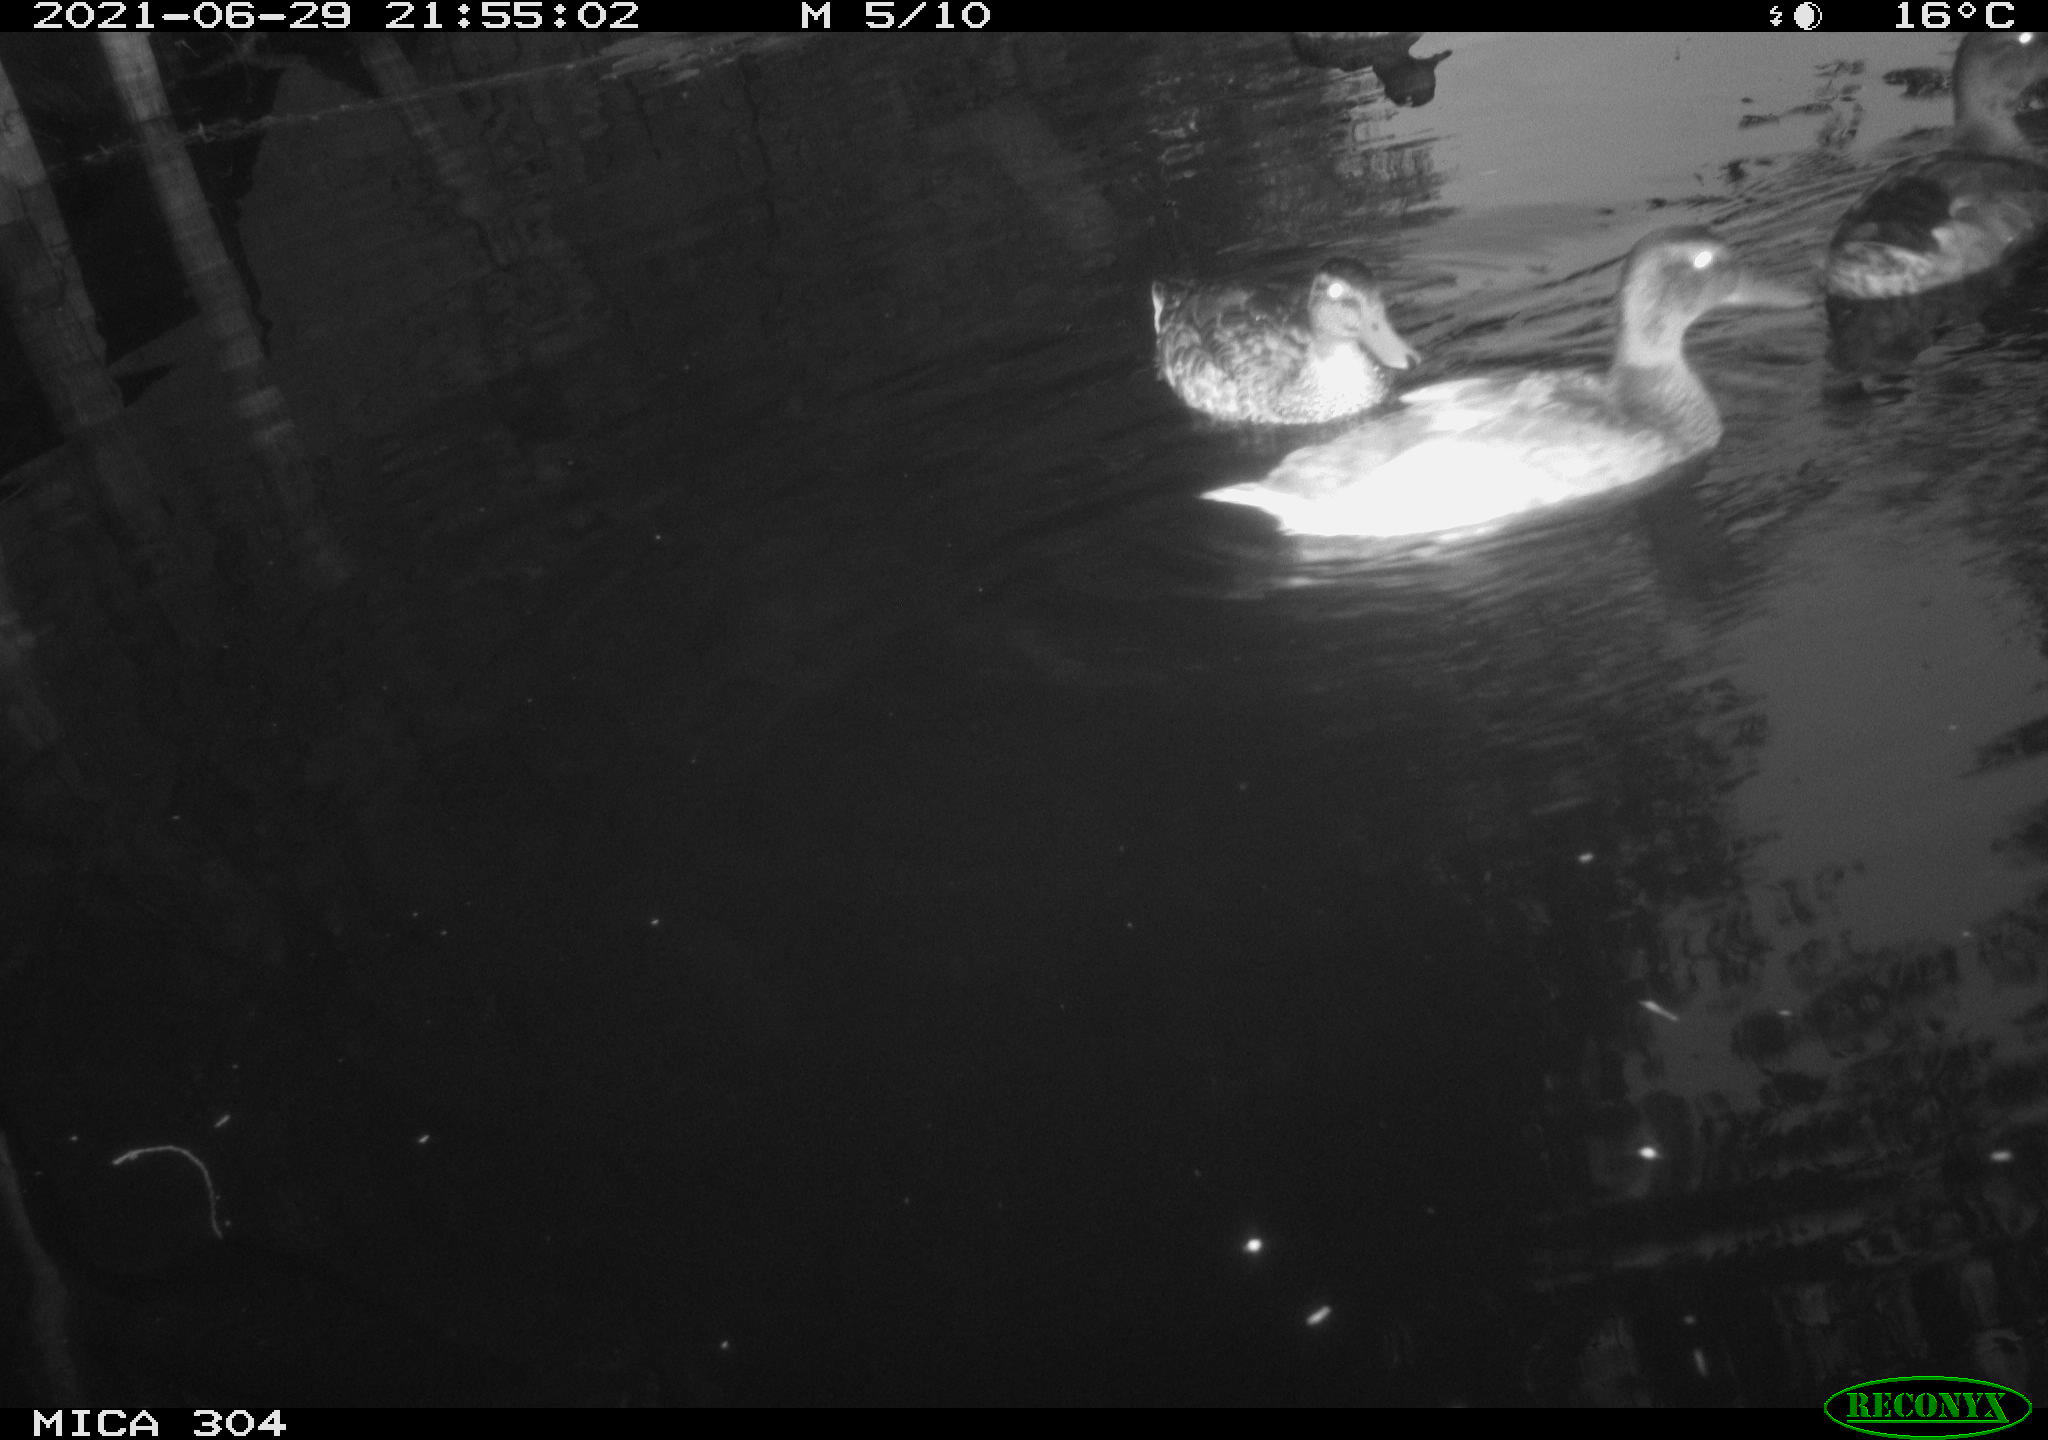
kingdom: Animalia
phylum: Chordata
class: Aves
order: Anseriformes
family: Anatidae
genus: Anas
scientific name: Anas platyrhynchos
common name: Mallard
